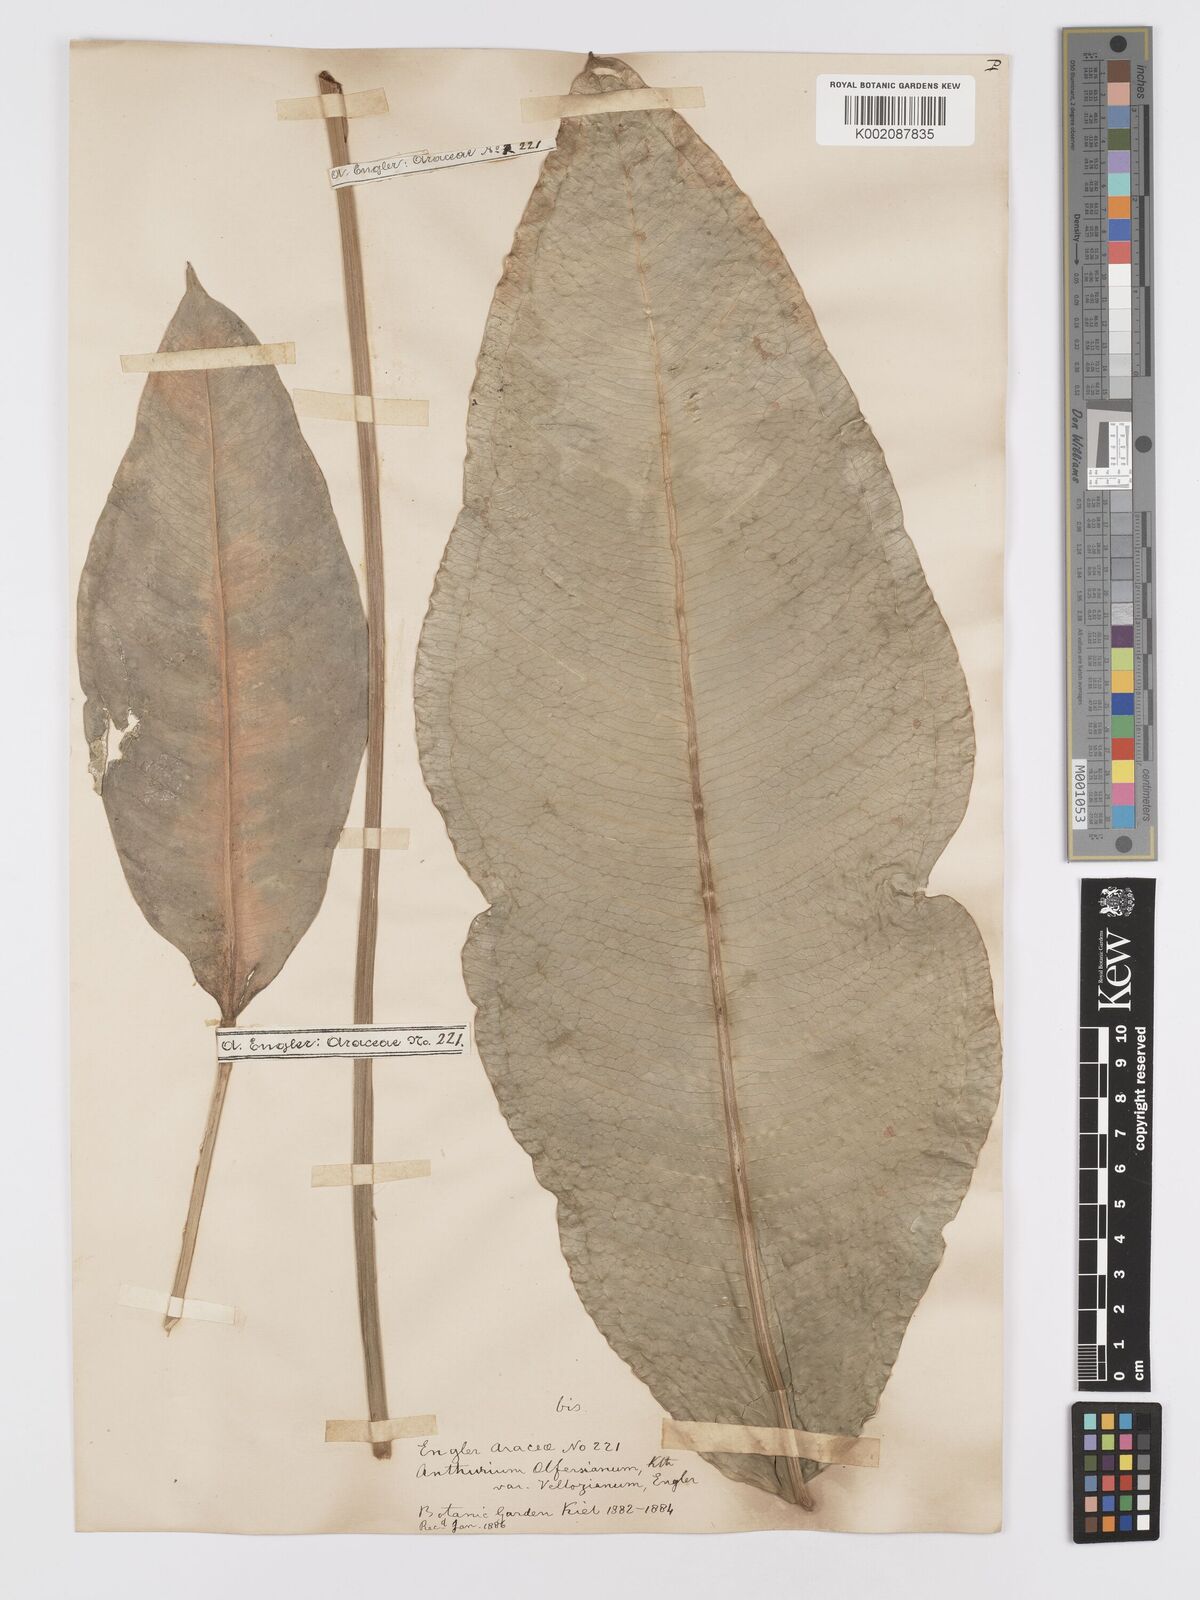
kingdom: Plantae
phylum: Tracheophyta
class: Liliopsida
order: Alismatales
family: Araceae
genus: Anthurium
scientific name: Anthurium parasiticum
